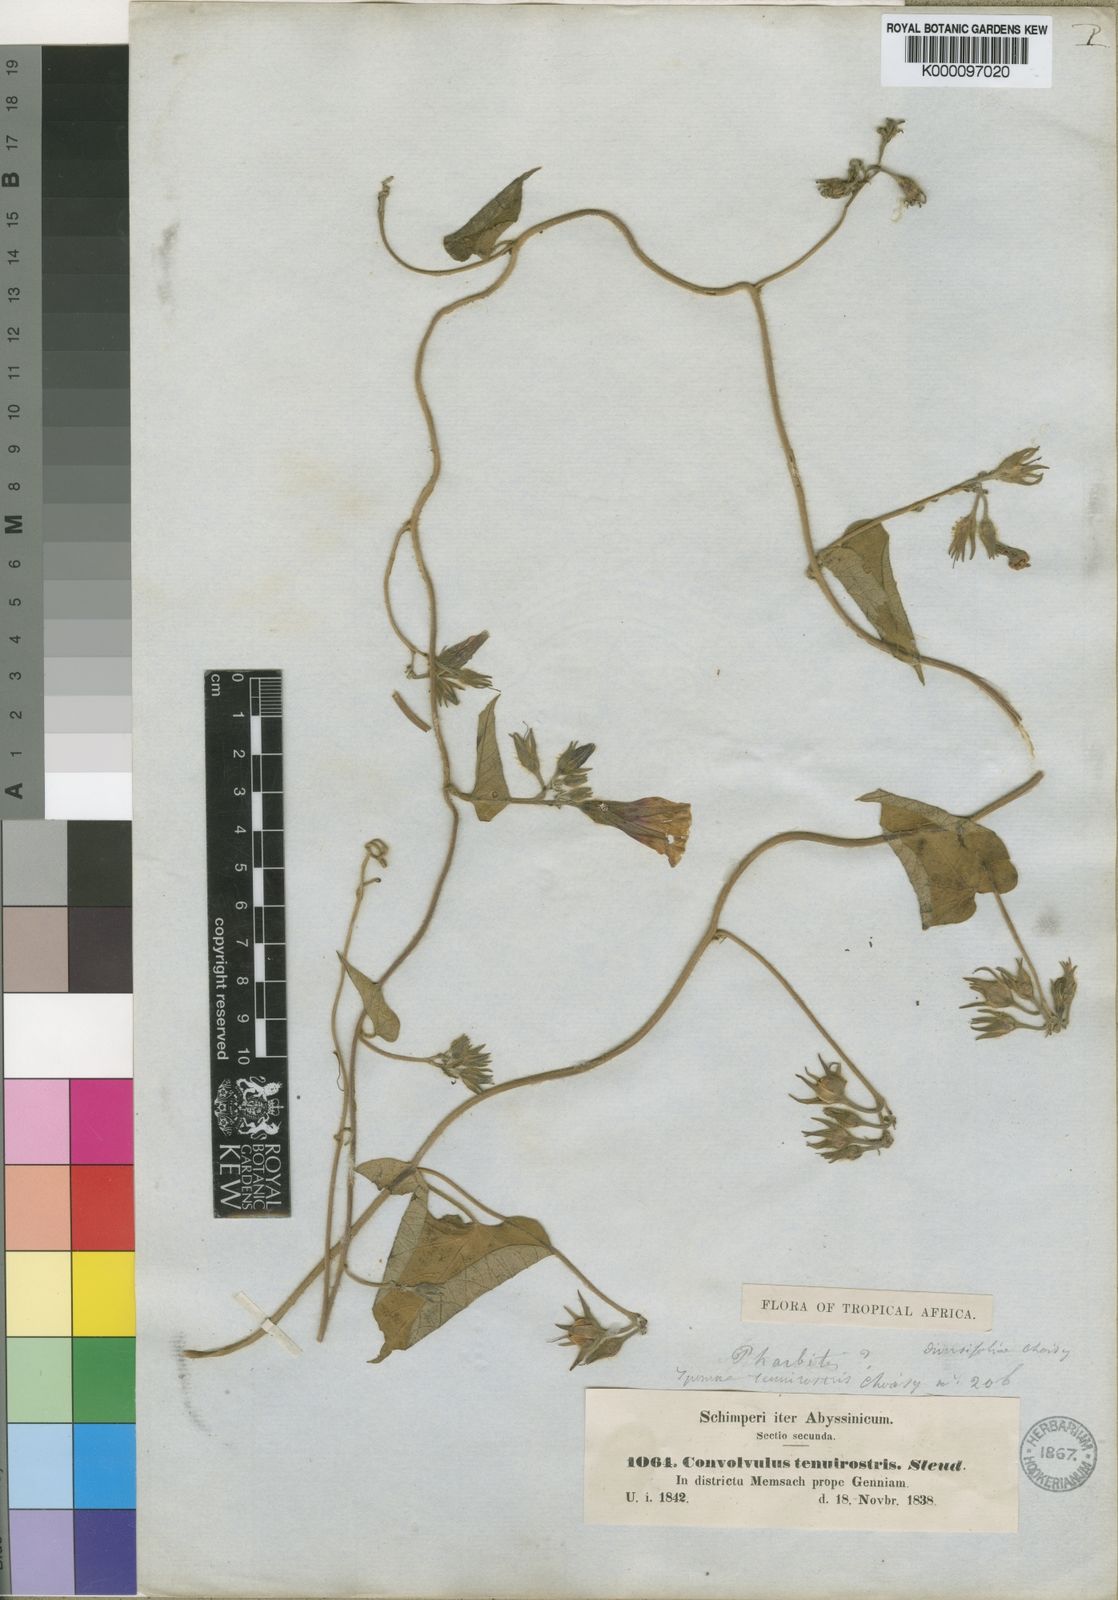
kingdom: Plantae
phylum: Tracheophyta
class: Magnoliopsida
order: Solanales
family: Convolvulaceae
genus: Ipomoea
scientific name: Ipomoea tenuirostris
